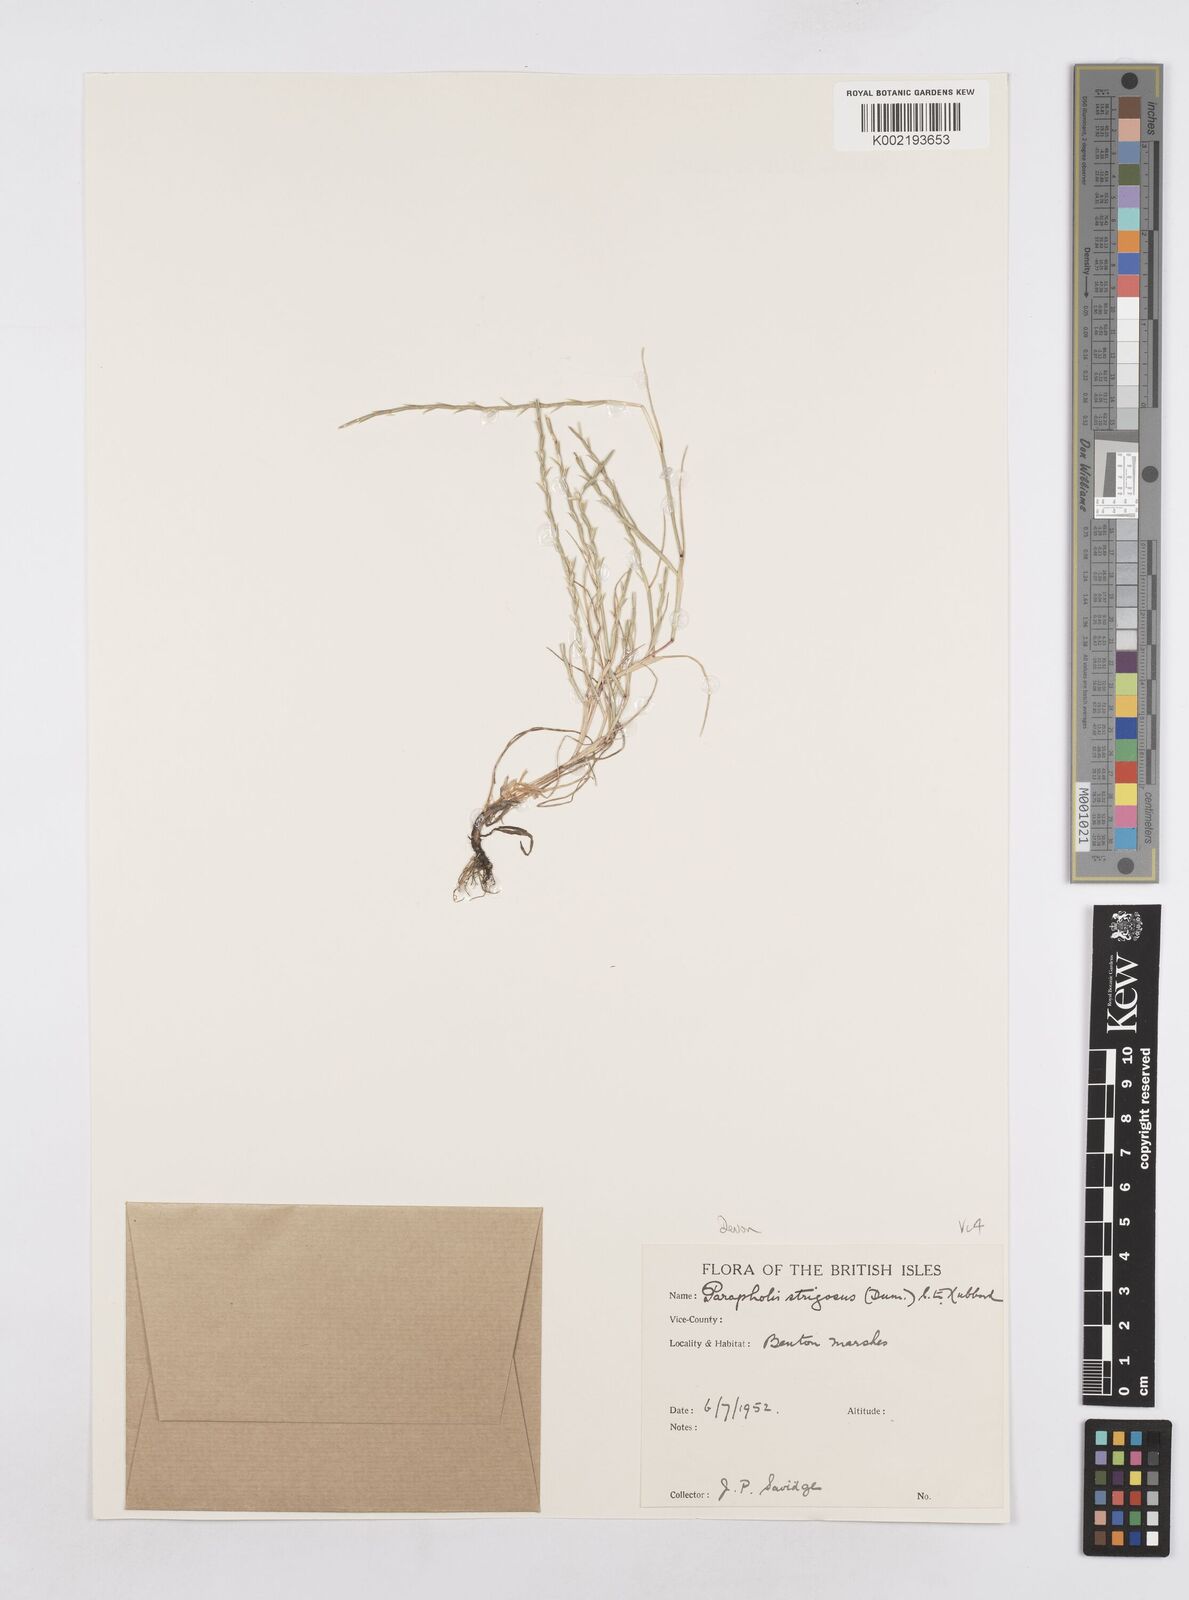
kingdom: Plantae
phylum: Tracheophyta
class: Liliopsida
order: Poales
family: Poaceae
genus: Parapholis
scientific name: Parapholis strigosa
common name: Hard-grass
